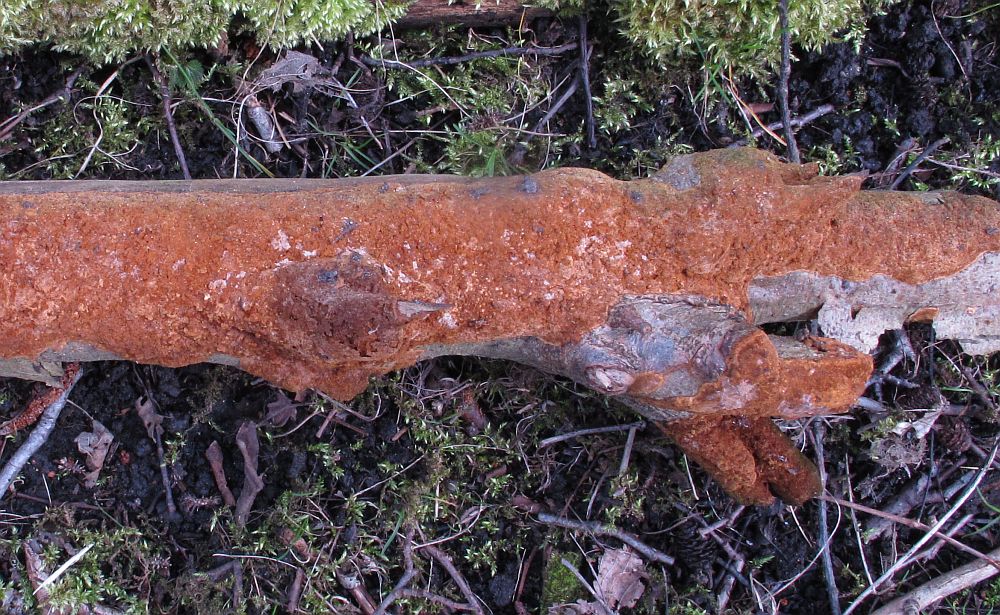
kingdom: Fungi
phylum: Basidiomycota
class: Agaricomycetes
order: Hymenochaetales
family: Hymenochaetaceae
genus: Fuscoporia
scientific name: Fuscoporia ferrea
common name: skorpe-ildporesvamp
